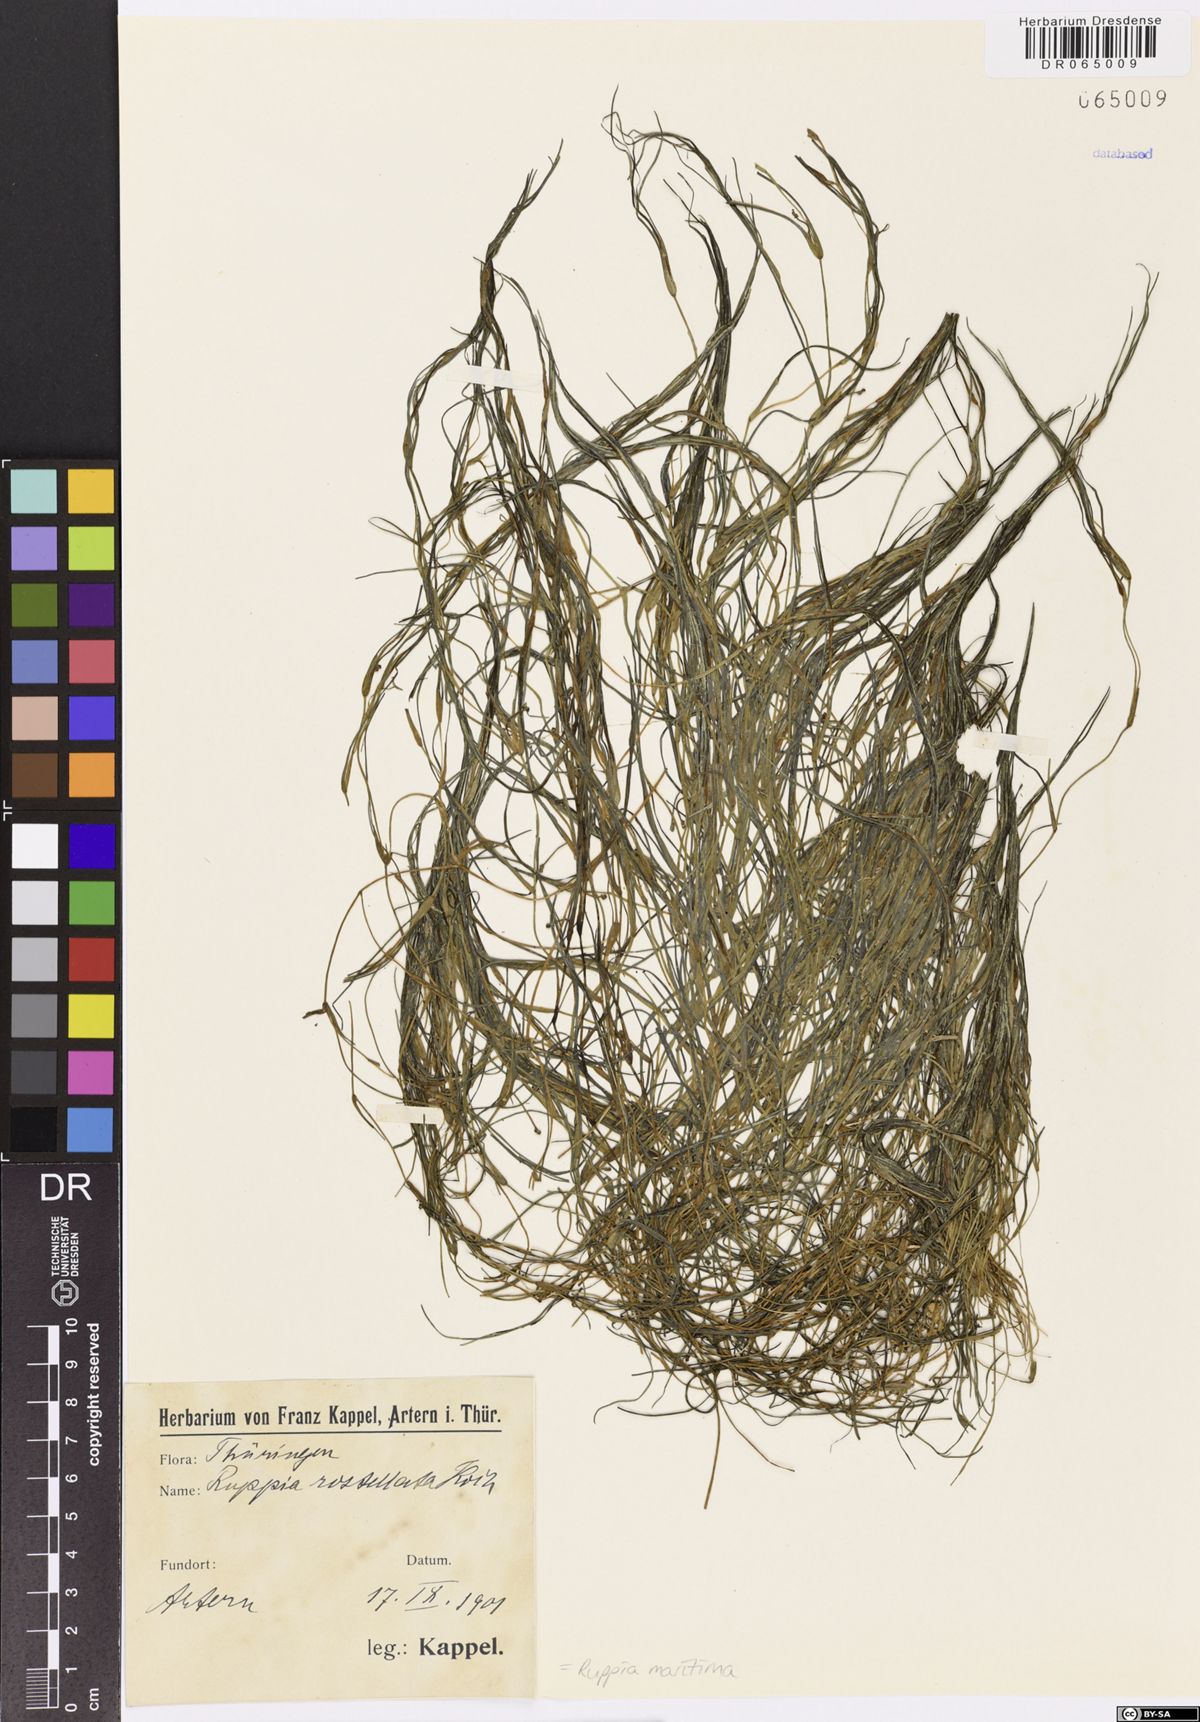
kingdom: Plantae
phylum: Tracheophyta
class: Liliopsida
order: Alismatales
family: Ruppiaceae
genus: Ruppia
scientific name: Ruppia maritima
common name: Beaked tasselweed
